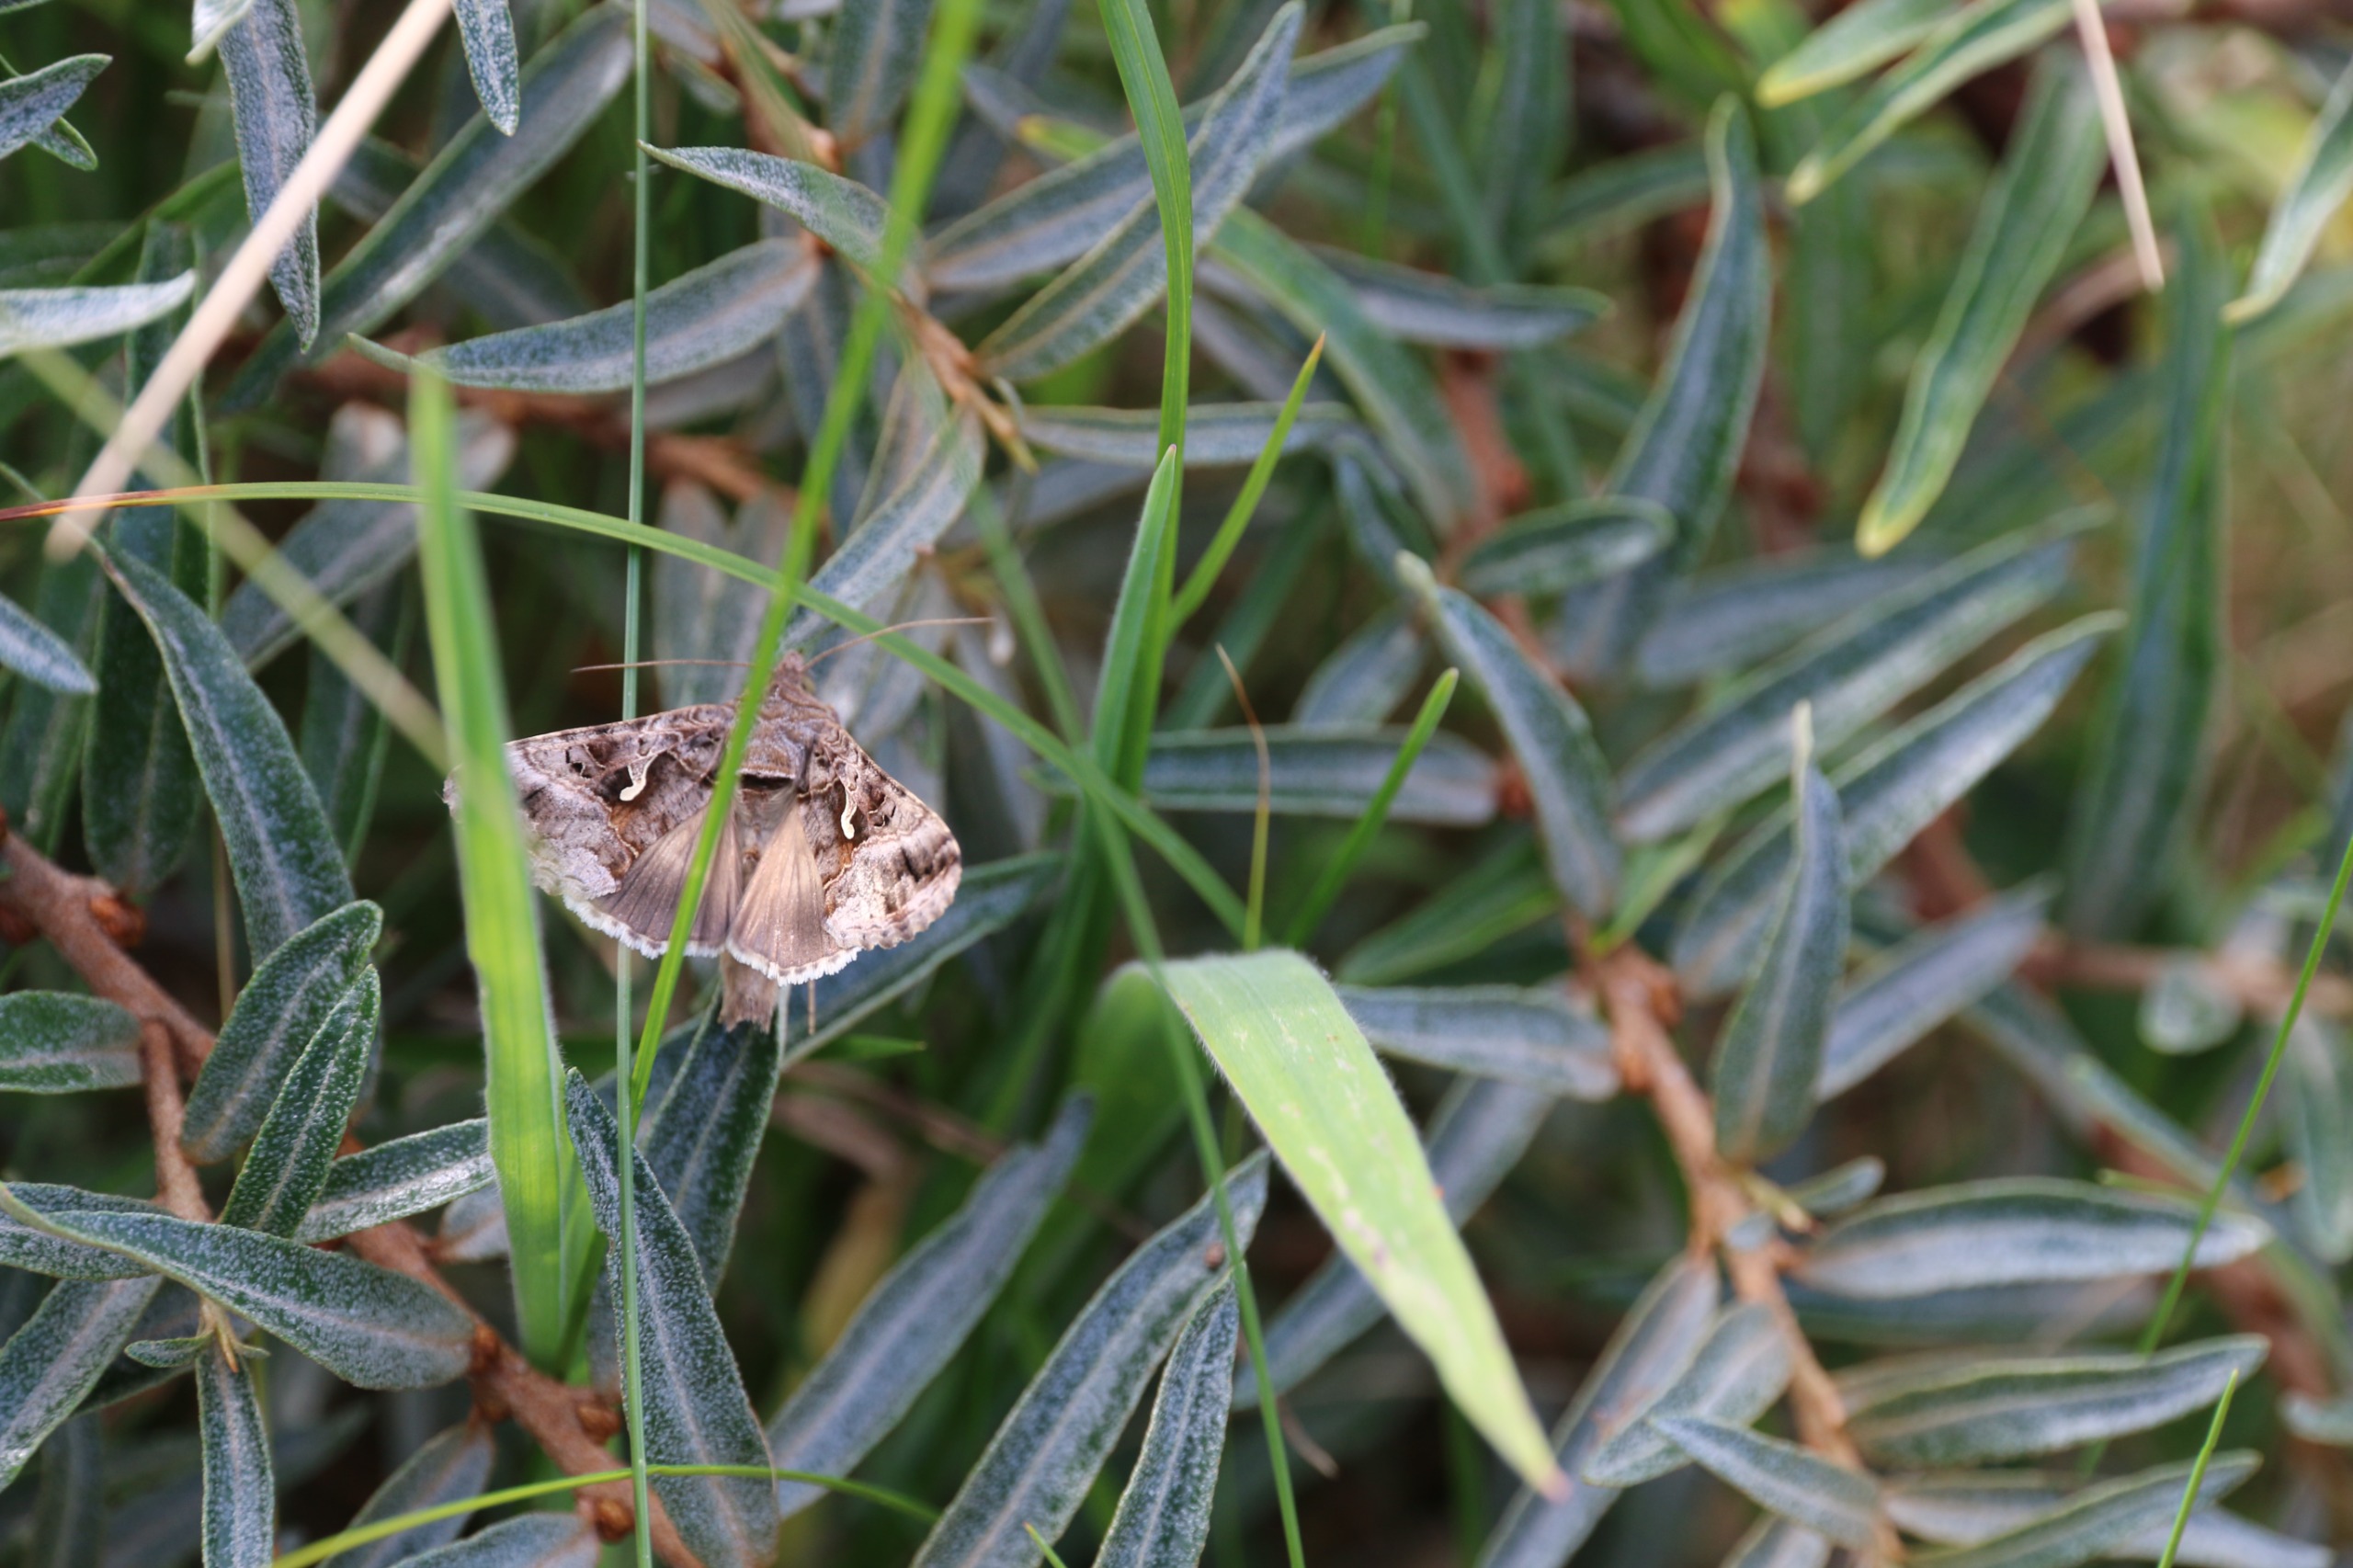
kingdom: Animalia
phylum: Arthropoda
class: Insecta
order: Lepidoptera
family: Noctuidae
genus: Autographa
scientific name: Autographa gamma
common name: Gammaugle
